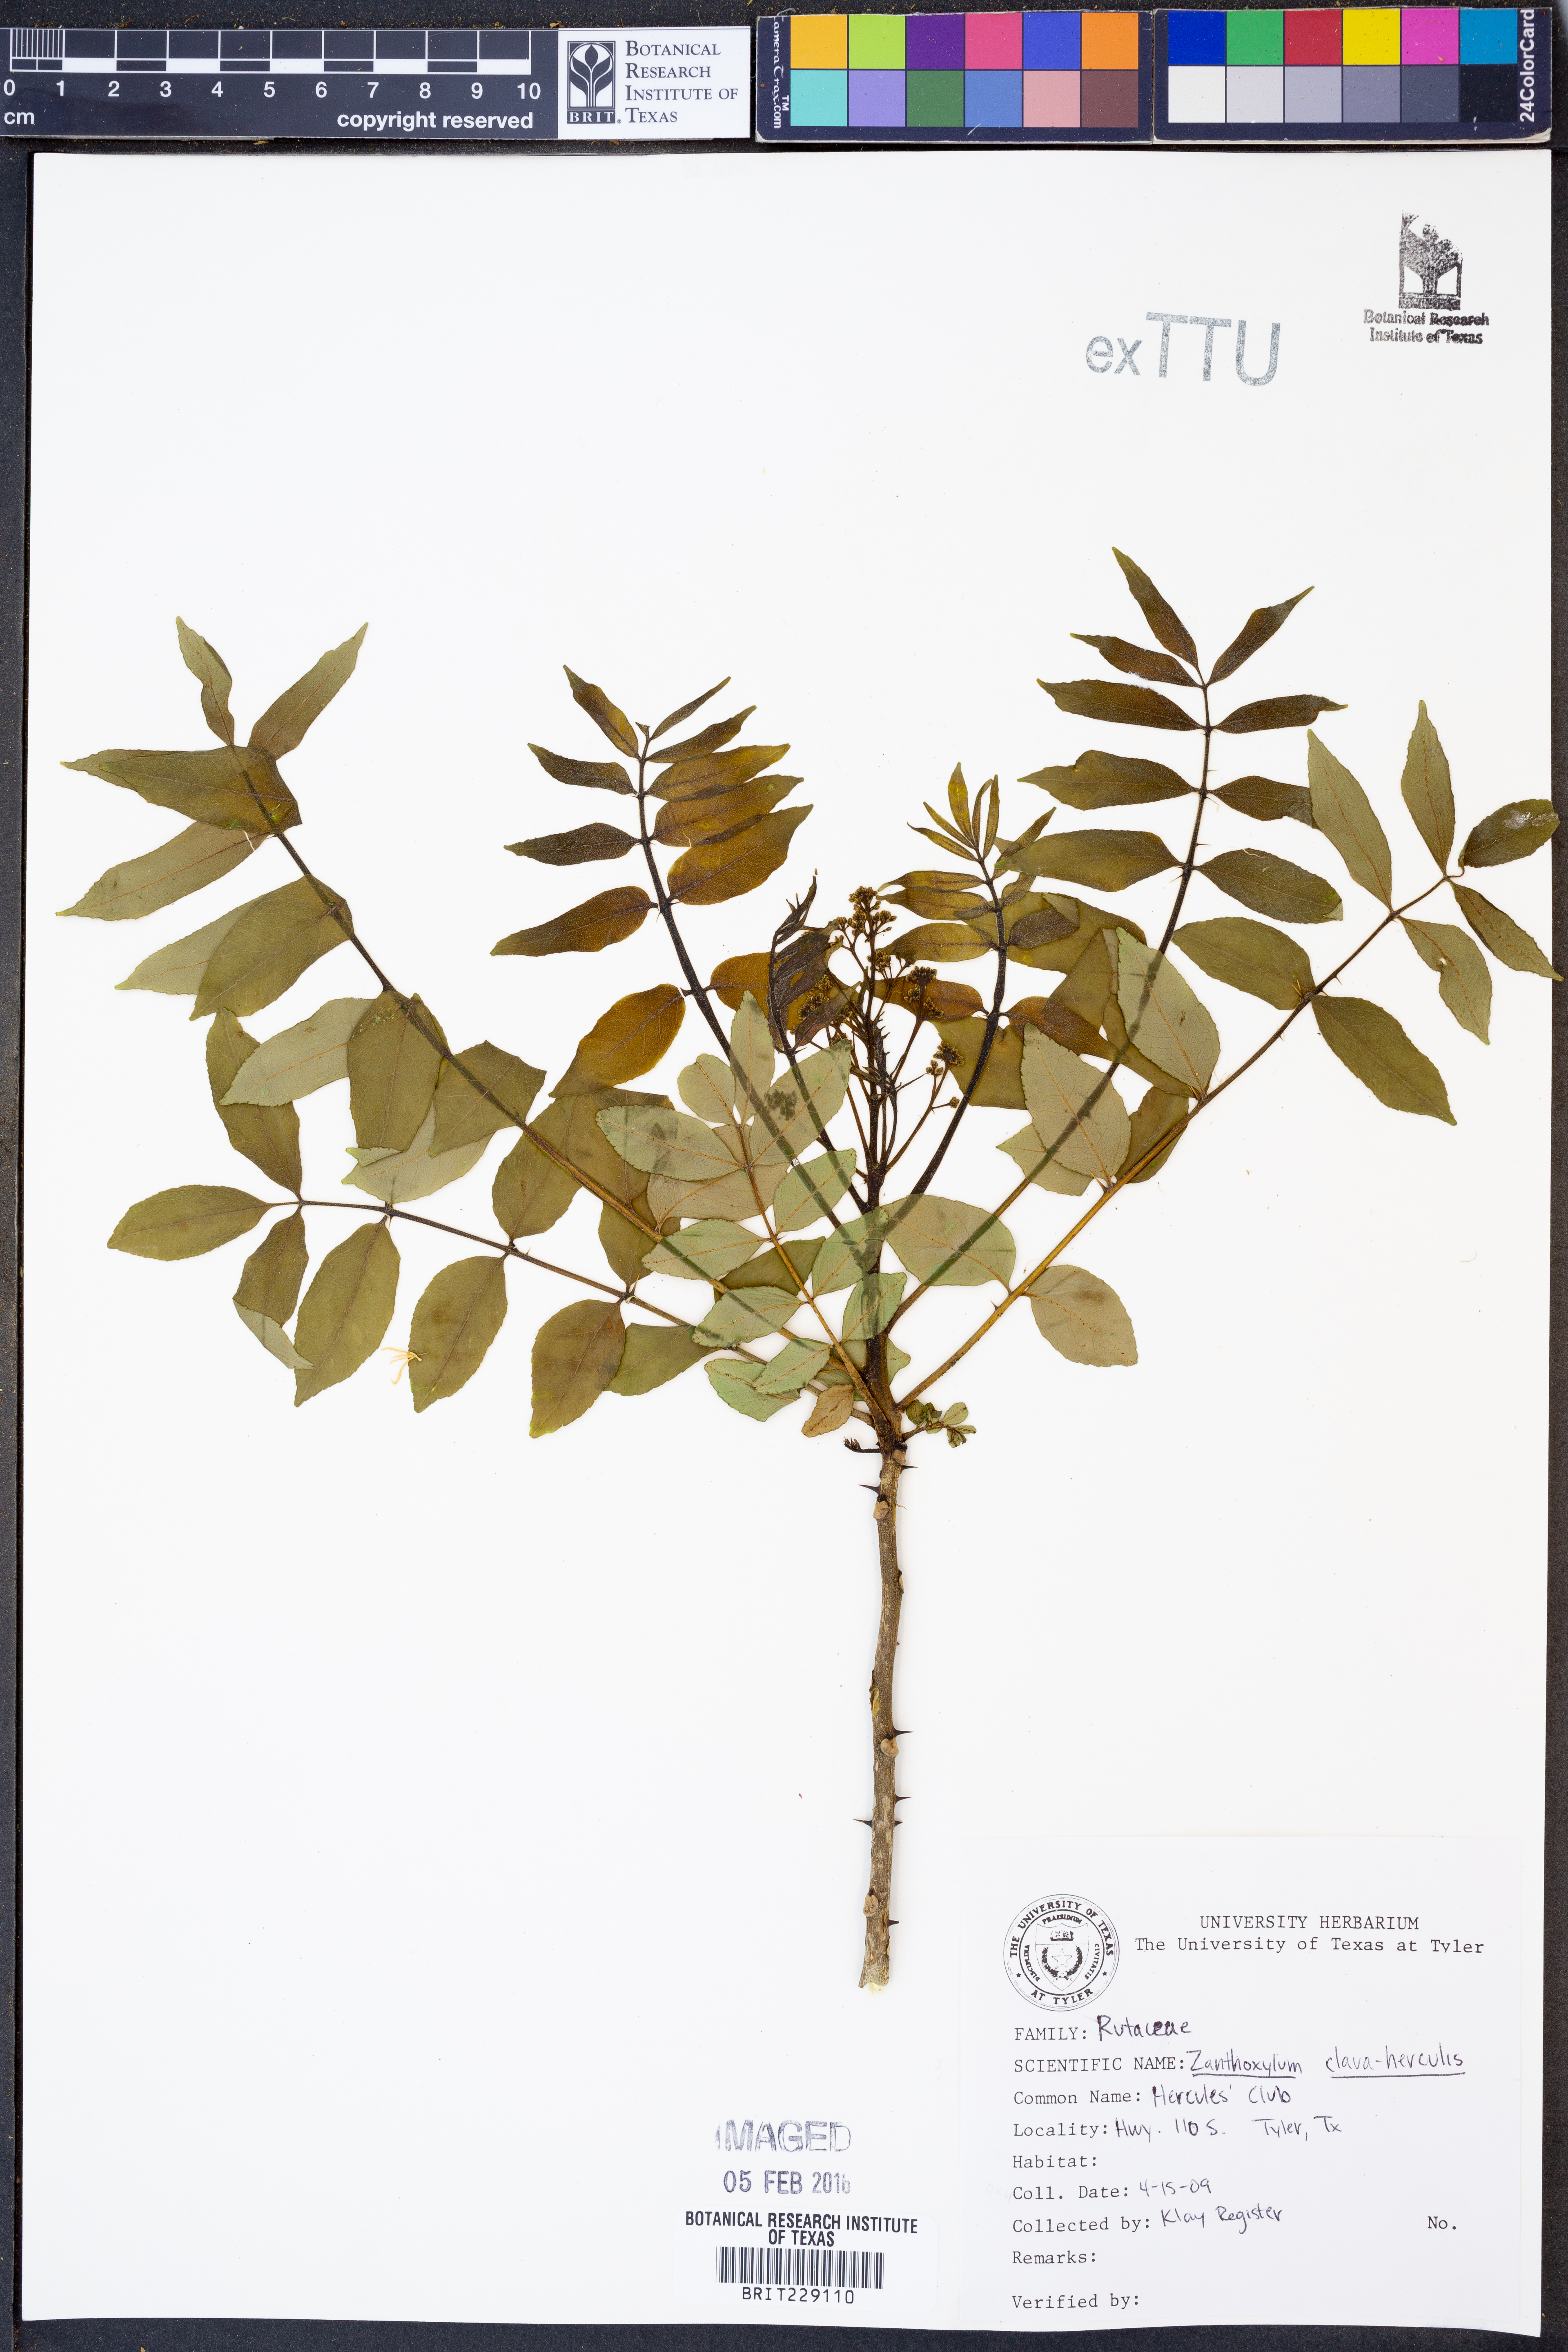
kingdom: Plantae
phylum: Tracheophyta
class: Magnoliopsida
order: Sapindales
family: Rutaceae
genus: Zanthoxylum
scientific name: Zanthoxylum avicennae
